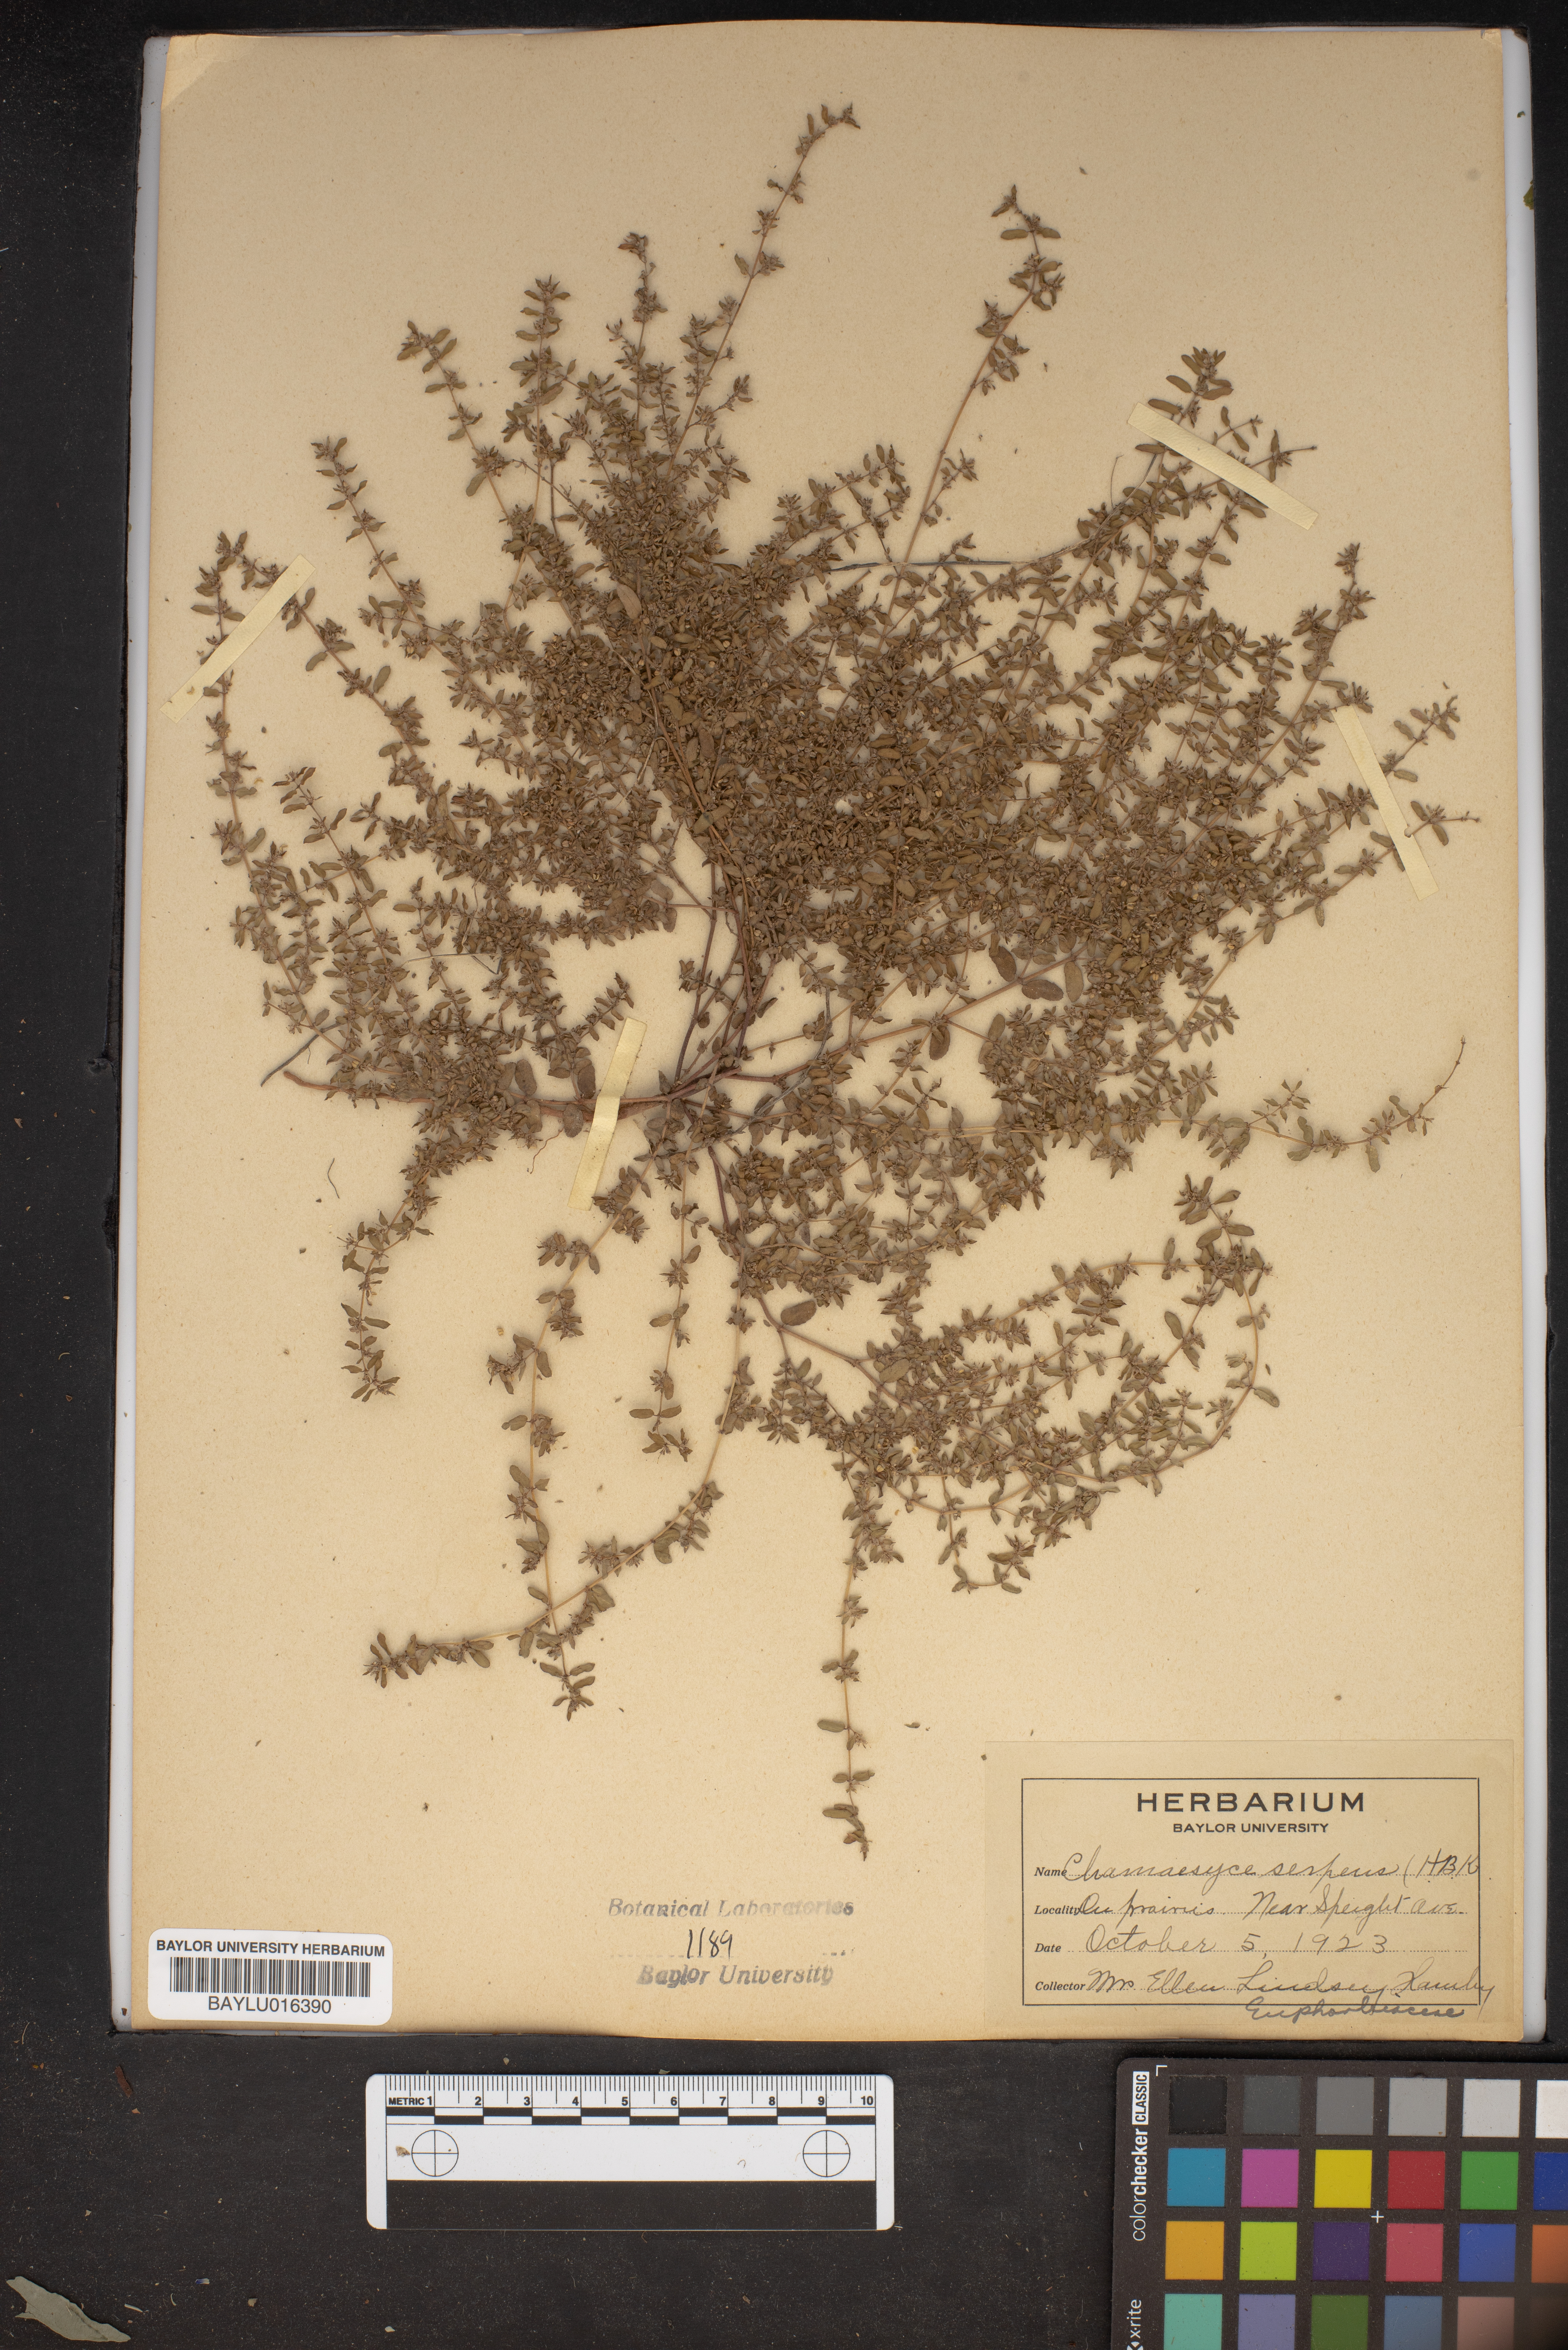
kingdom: Plantae
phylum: Tracheophyta
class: Magnoliopsida
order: Malpighiales
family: Euphorbiaceae
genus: Euphorbia
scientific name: Euphorbia serpens
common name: Matted sandmat
